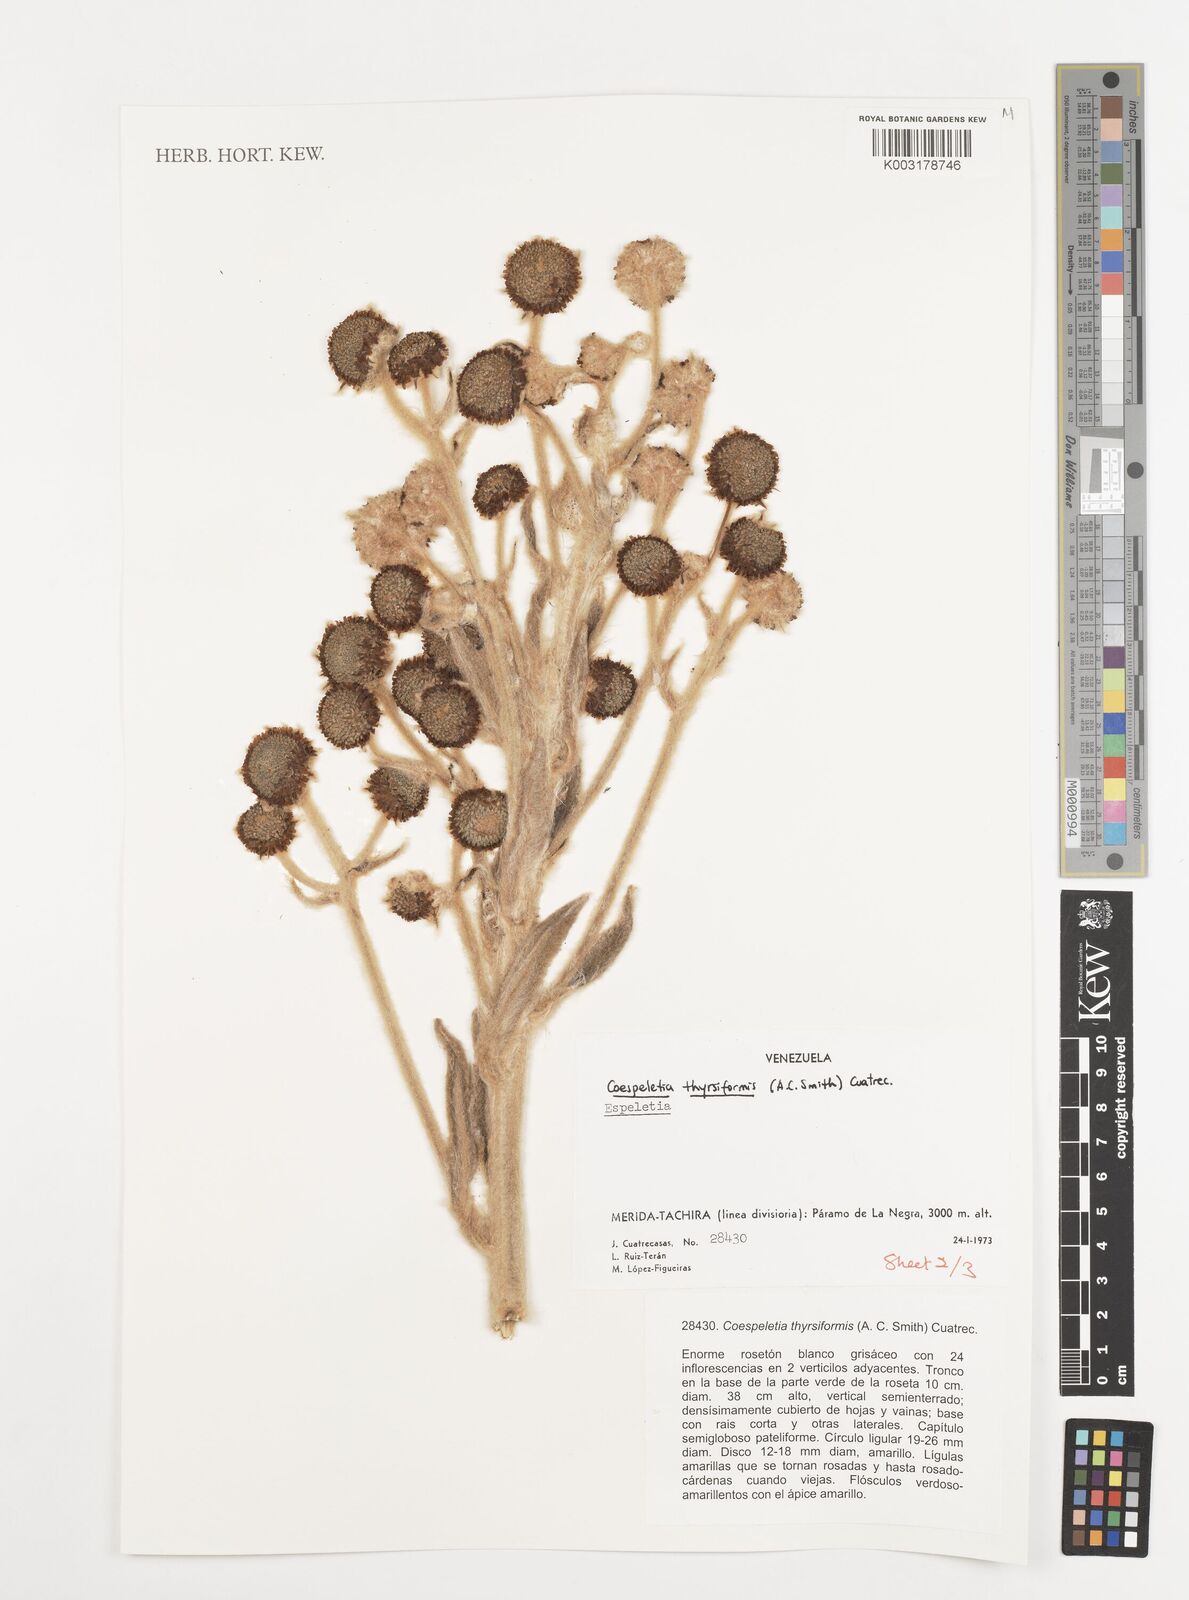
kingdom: Plantae
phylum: Tracheophyta
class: Magnoliopsida
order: Asterales
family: Asteraceae
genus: Espeletia
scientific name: Espeletia thyrsiformis
